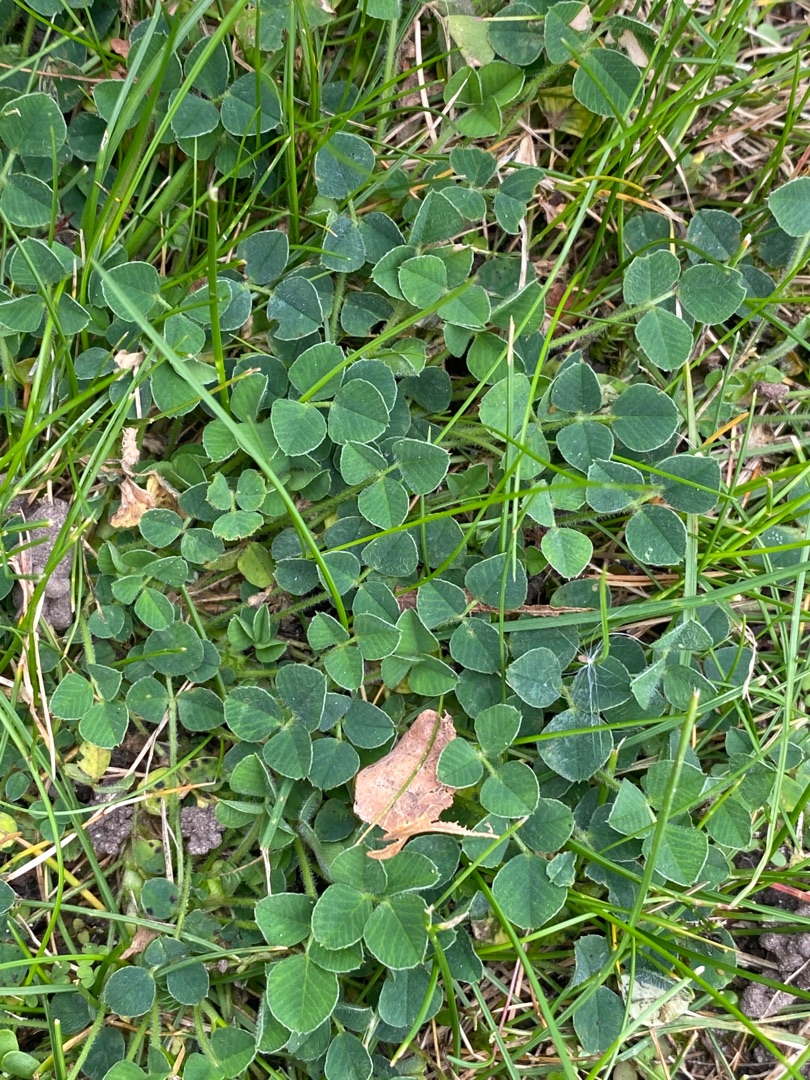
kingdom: Plantae
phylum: Tracheophyta
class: Magnoliopsida
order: Fabales
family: Fabaceae
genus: Medicago
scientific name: Medicago lupulina
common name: Humle-sneglebælg
